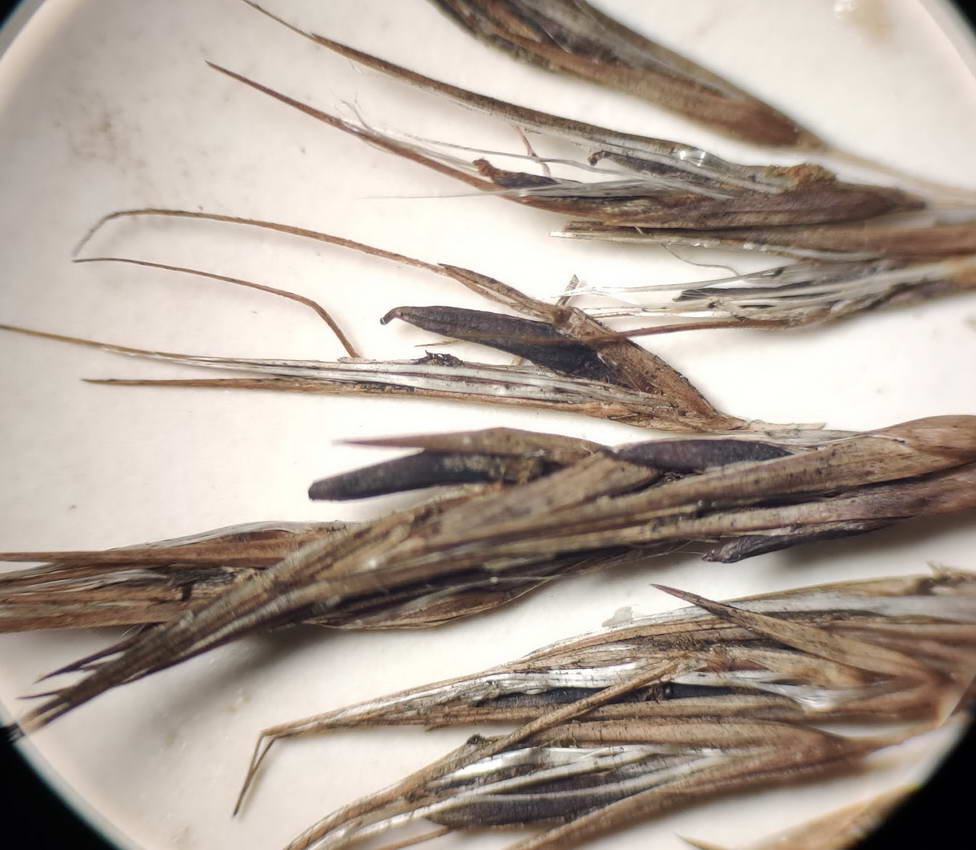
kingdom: Fungi
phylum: Ascomycota
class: Sordariomycetes
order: Hypocreales
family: Clavicipitaceae
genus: Claviceps
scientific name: Claviceps arundinis
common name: tagrør-meldrøjer
